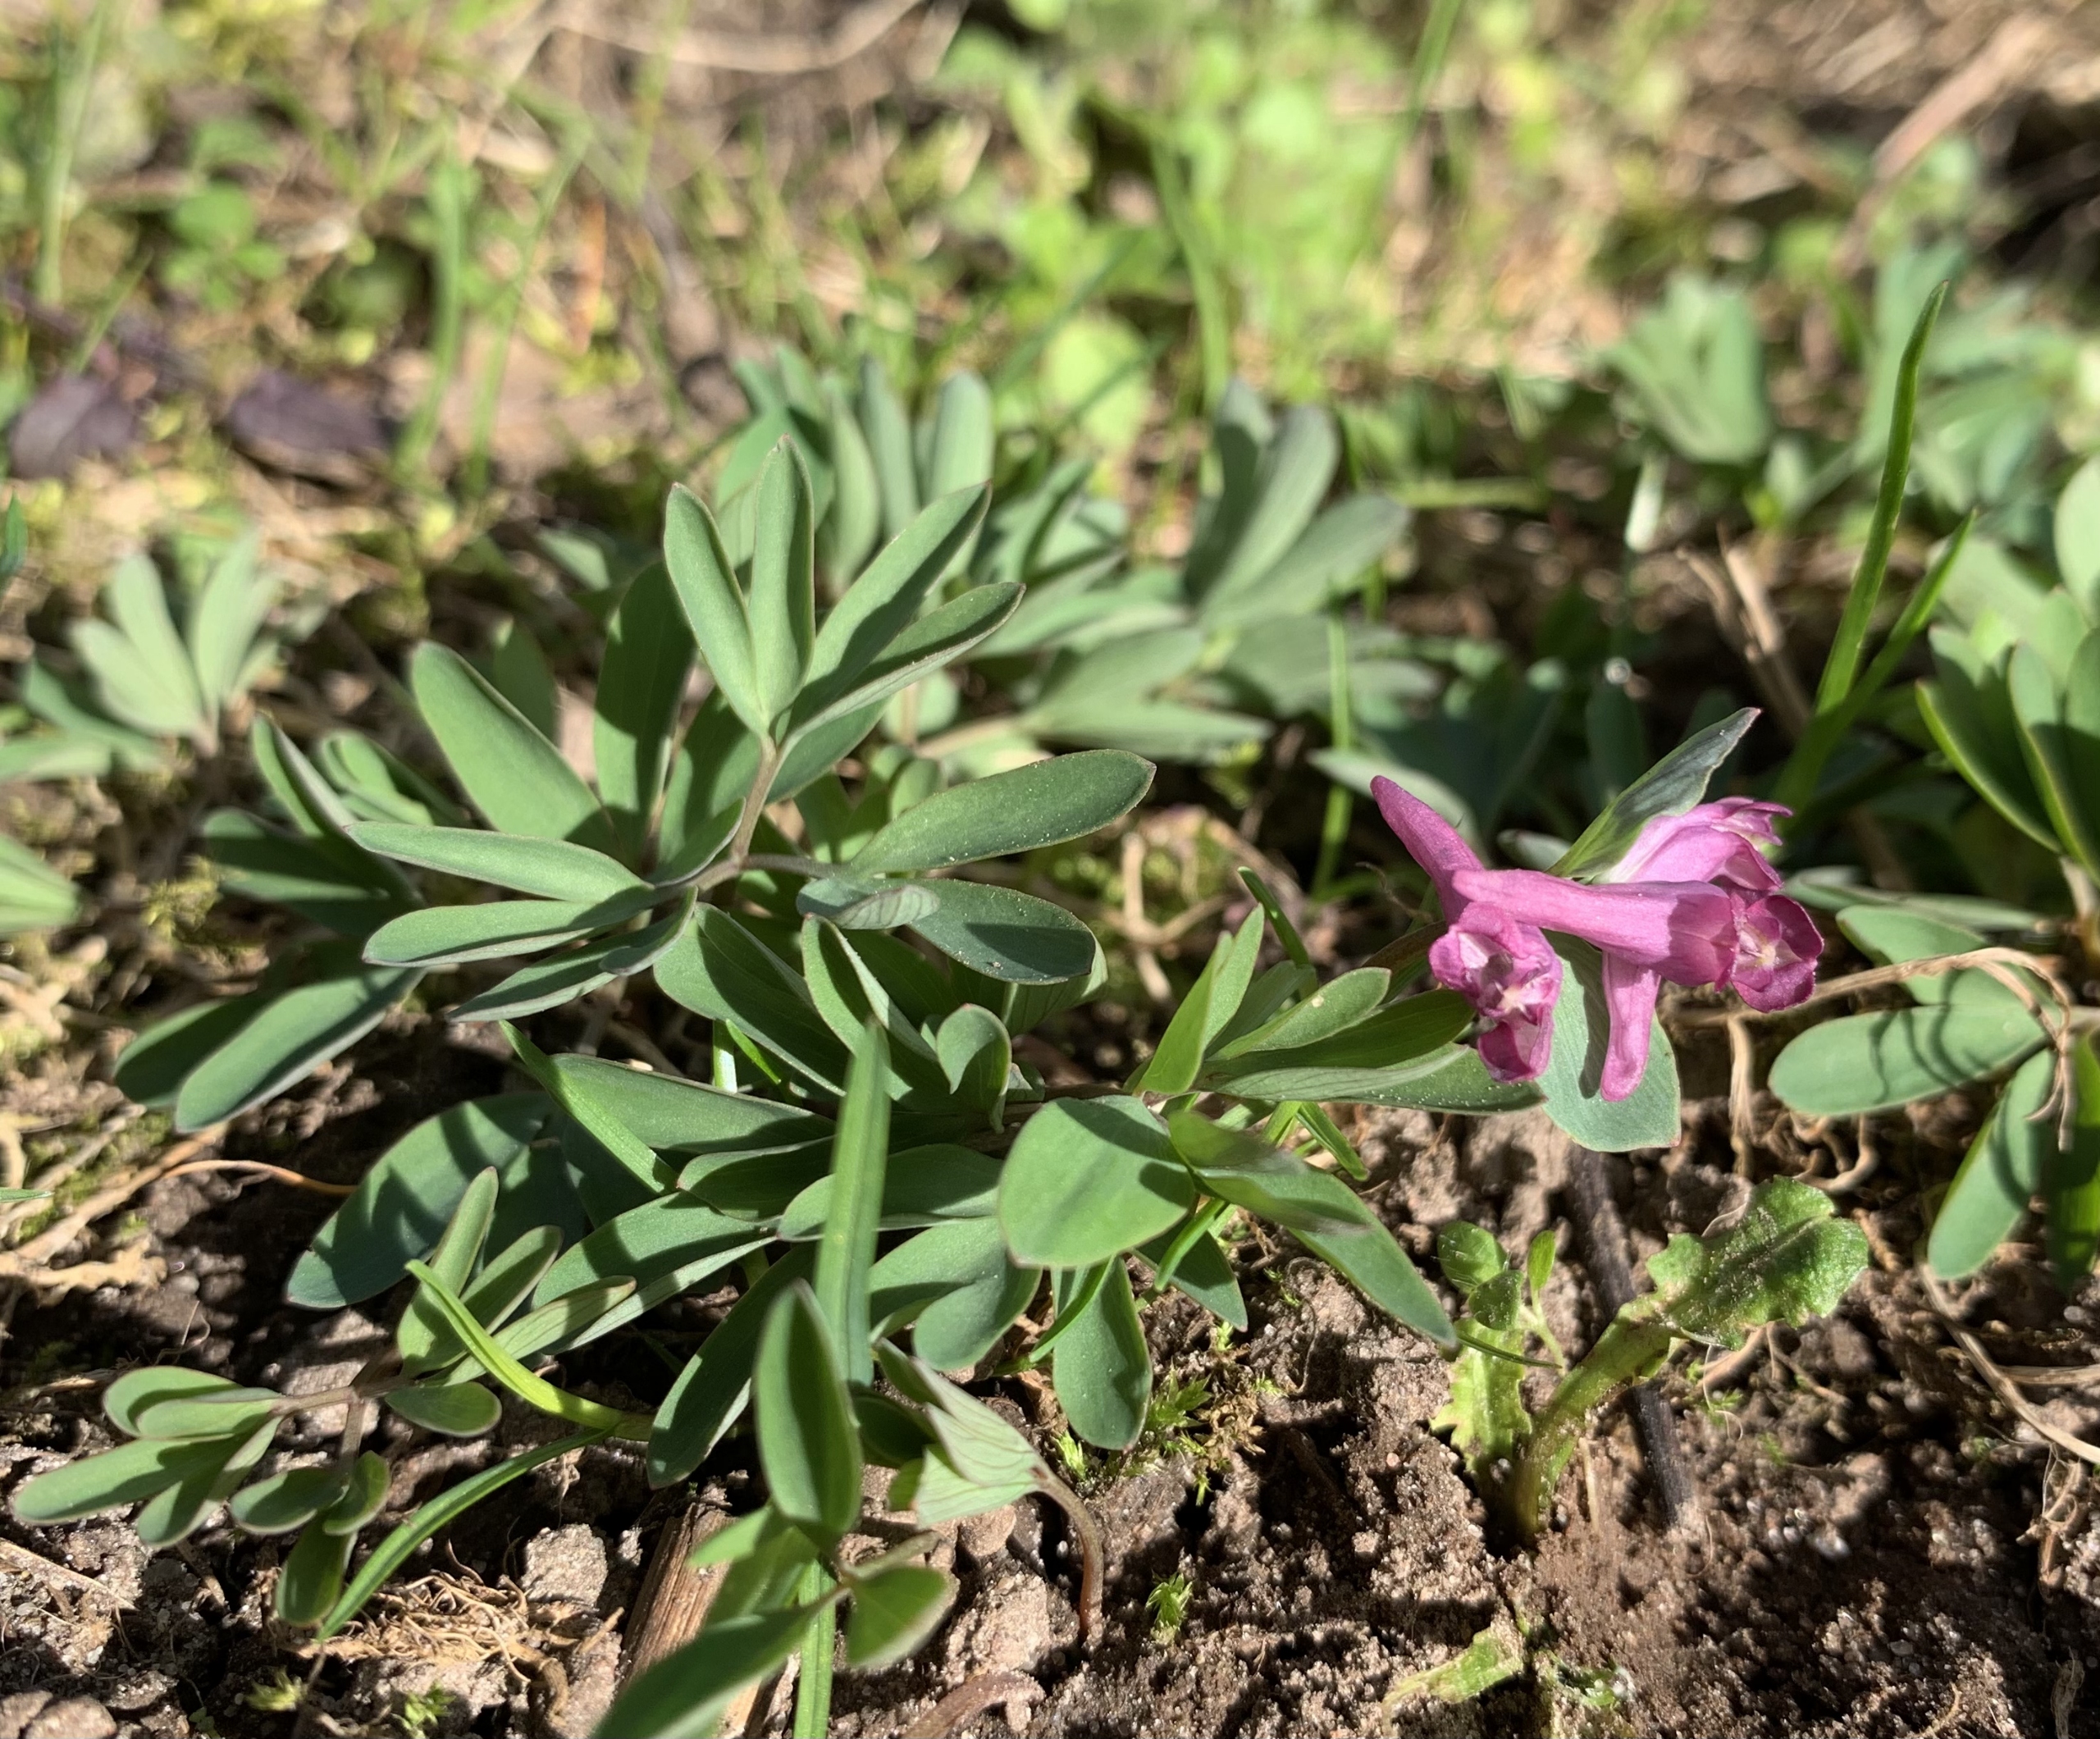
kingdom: Plantae
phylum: Tracheophyta
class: Magnoliopsida
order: Ranunculales
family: Papaveraceae
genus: Corydalis
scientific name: Corydalis intermedia
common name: Liden lærkespore
